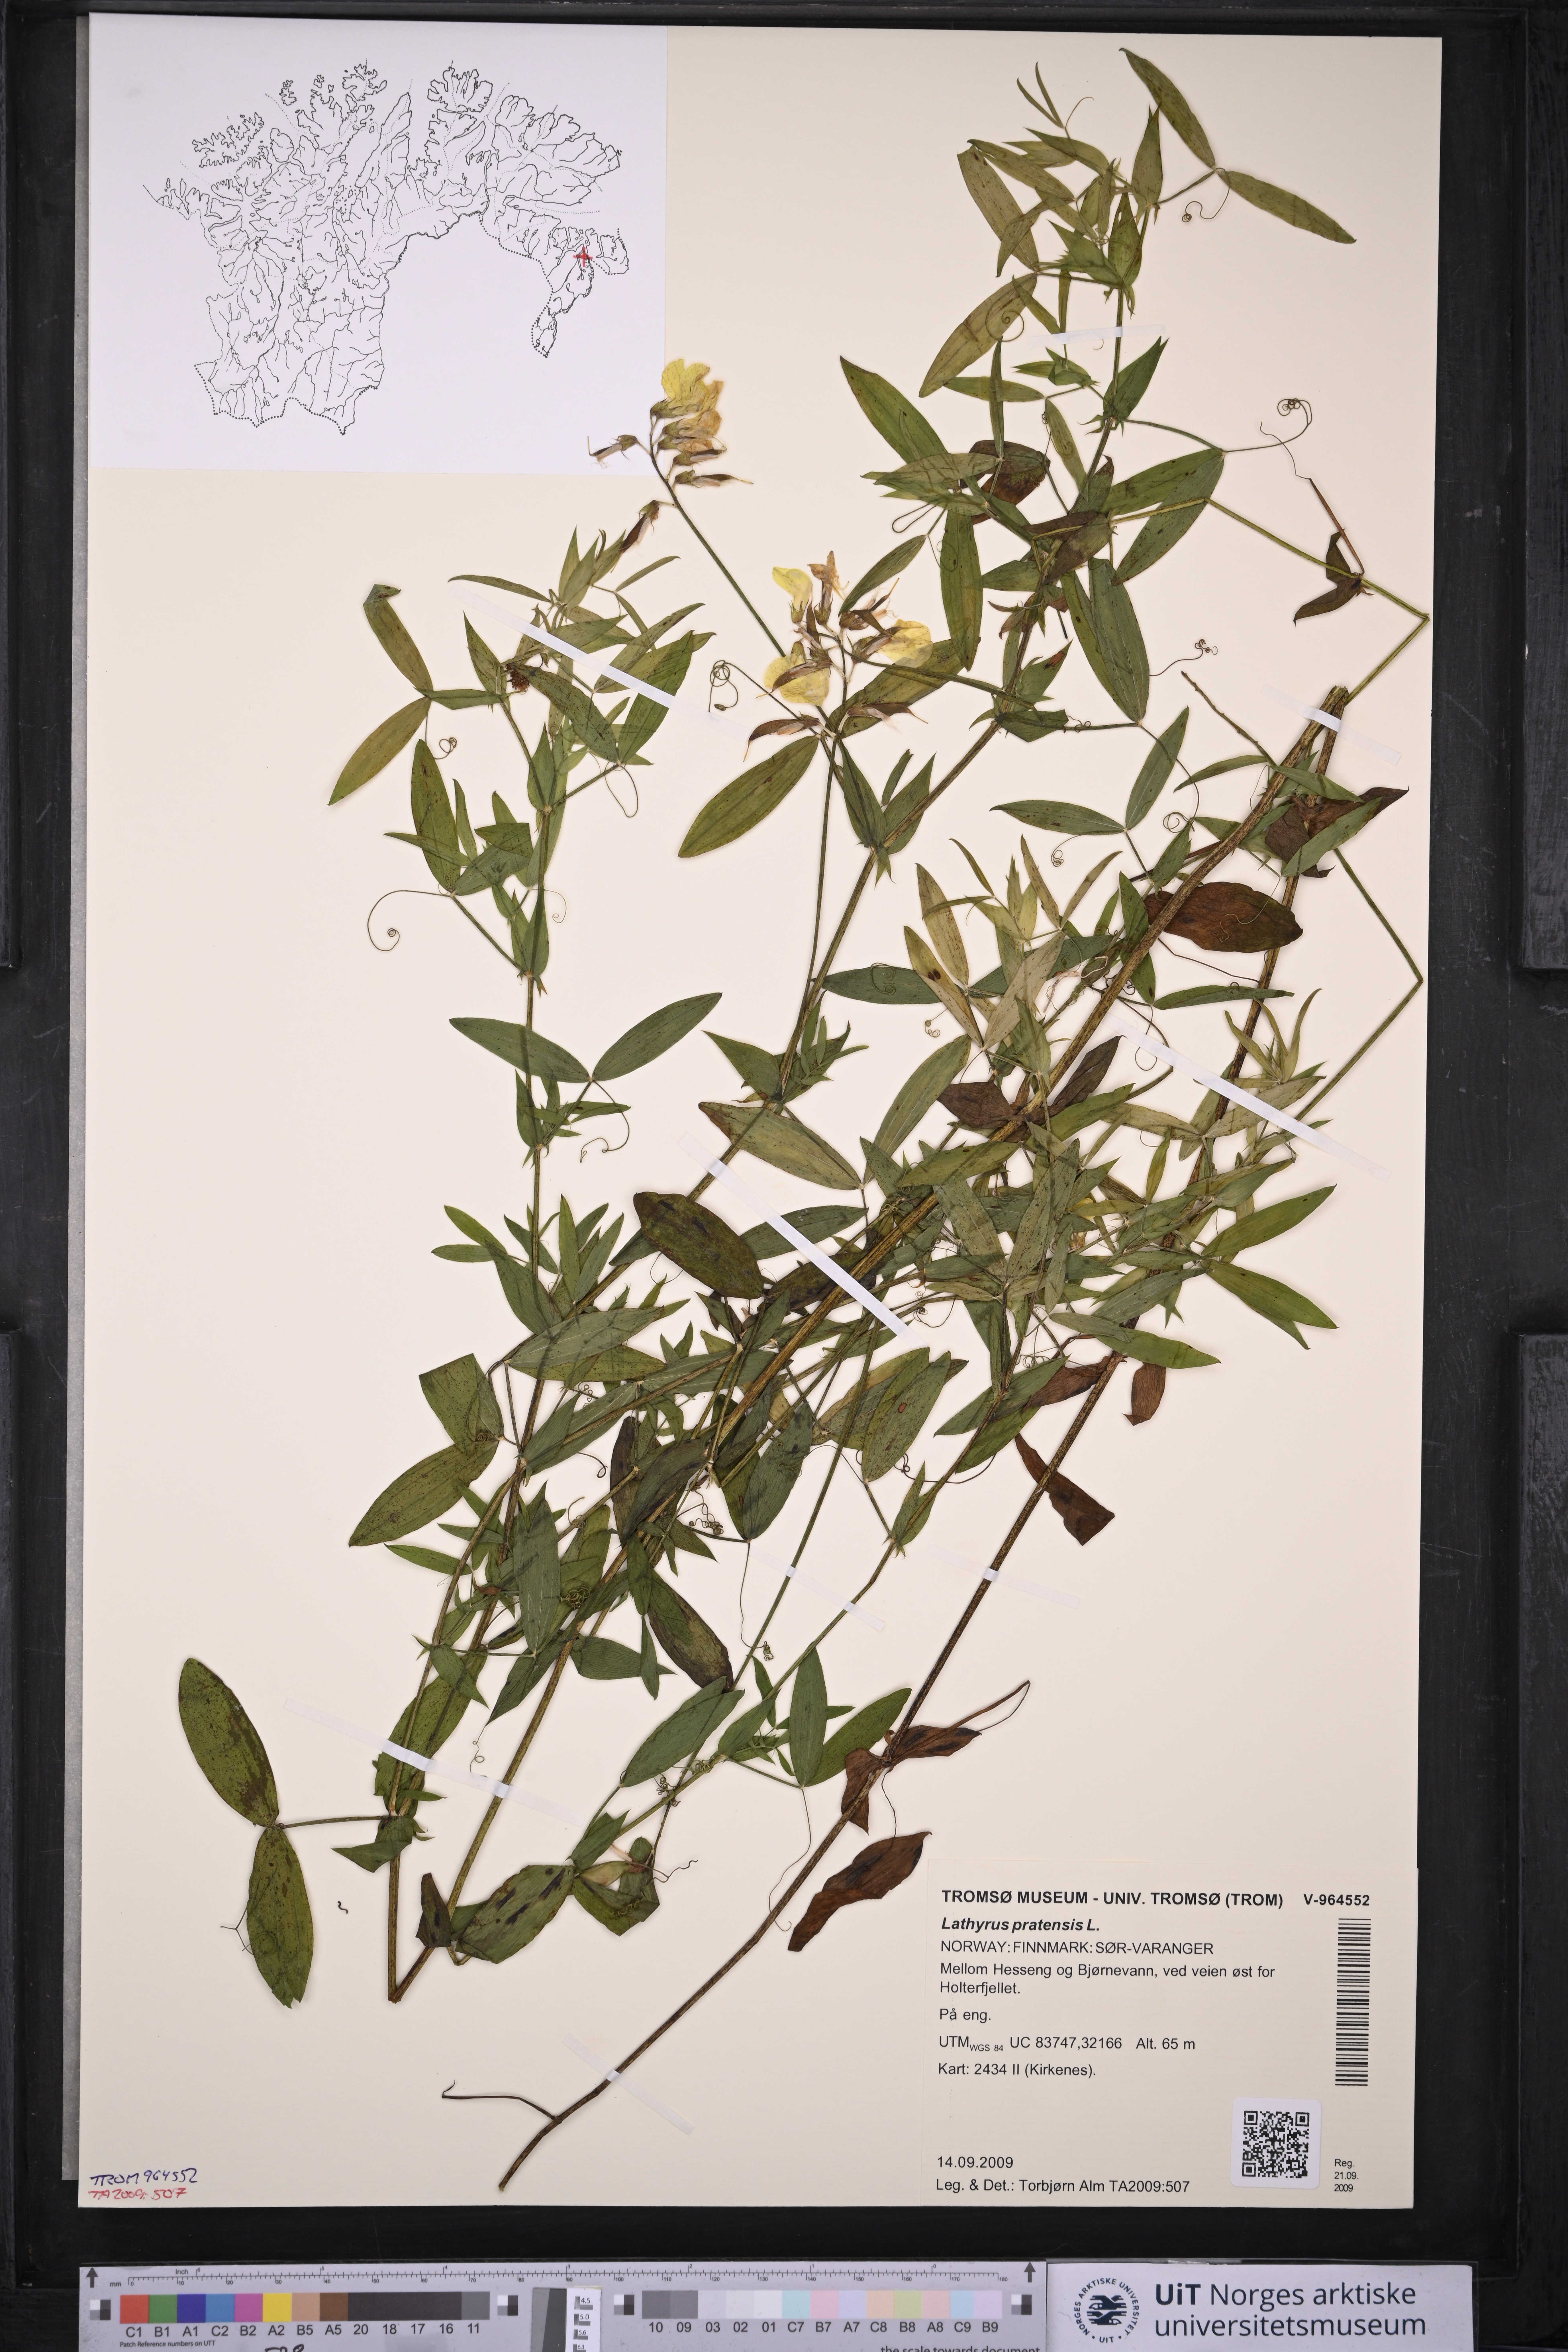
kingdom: Plantae
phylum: Tracheophyta
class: Magnoliopsida
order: Fabales
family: Fabaceae
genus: Lathyrus
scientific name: Lathyrus pratensis
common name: Meadow vetchling
